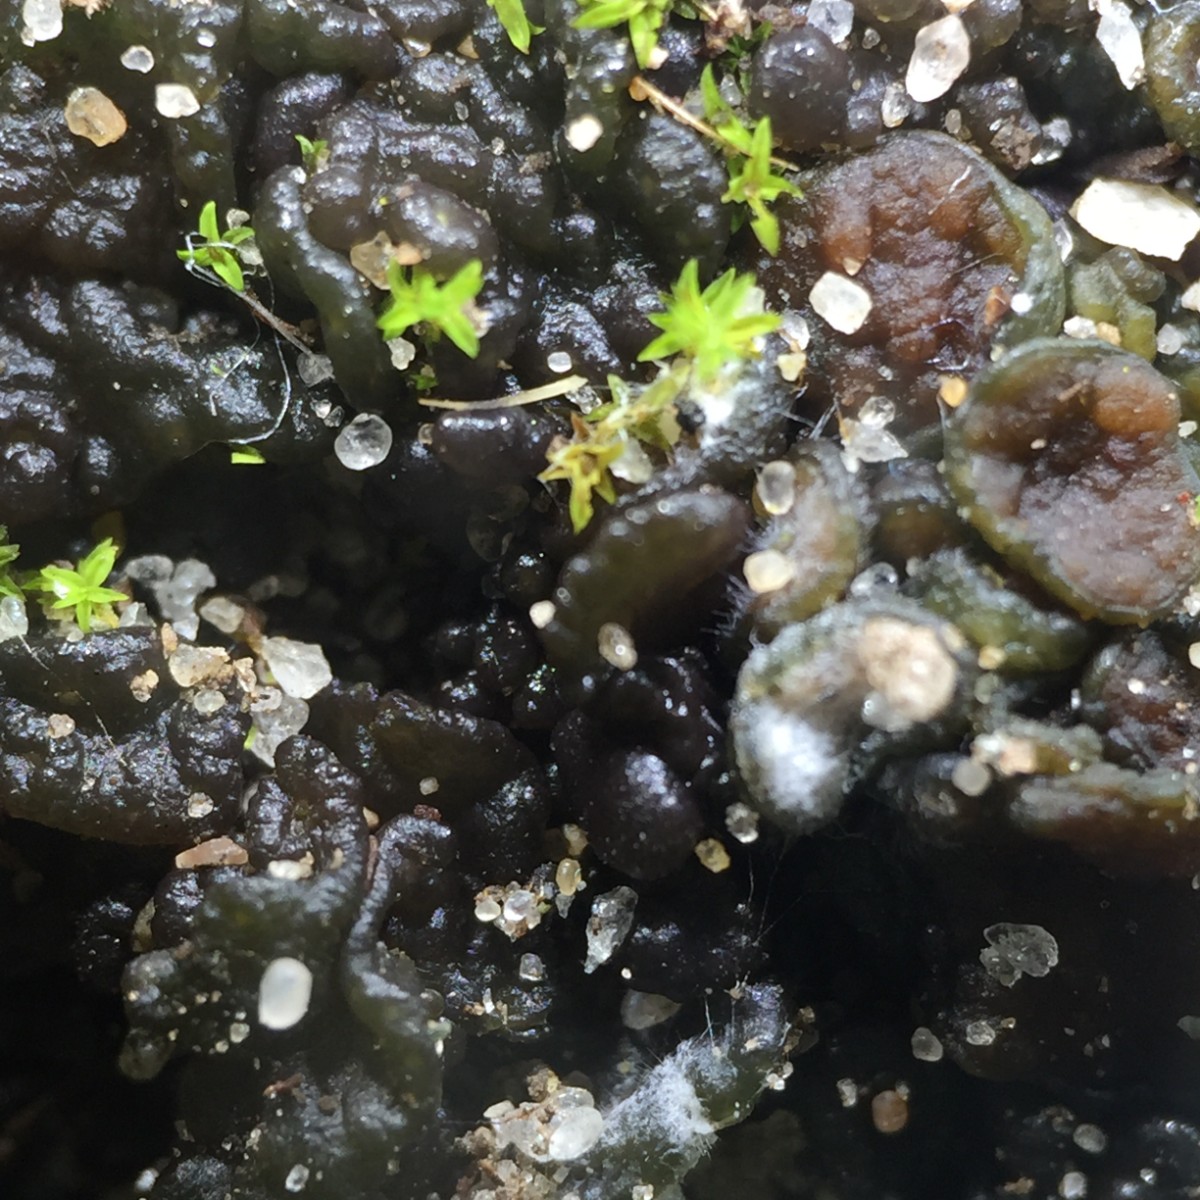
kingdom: Fungi
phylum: Ascomycota
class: Lecanoromycetes
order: Peltigerales
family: Collemataceae
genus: Enchylium
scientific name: Enchylium tenax
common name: tyk bævrelav
